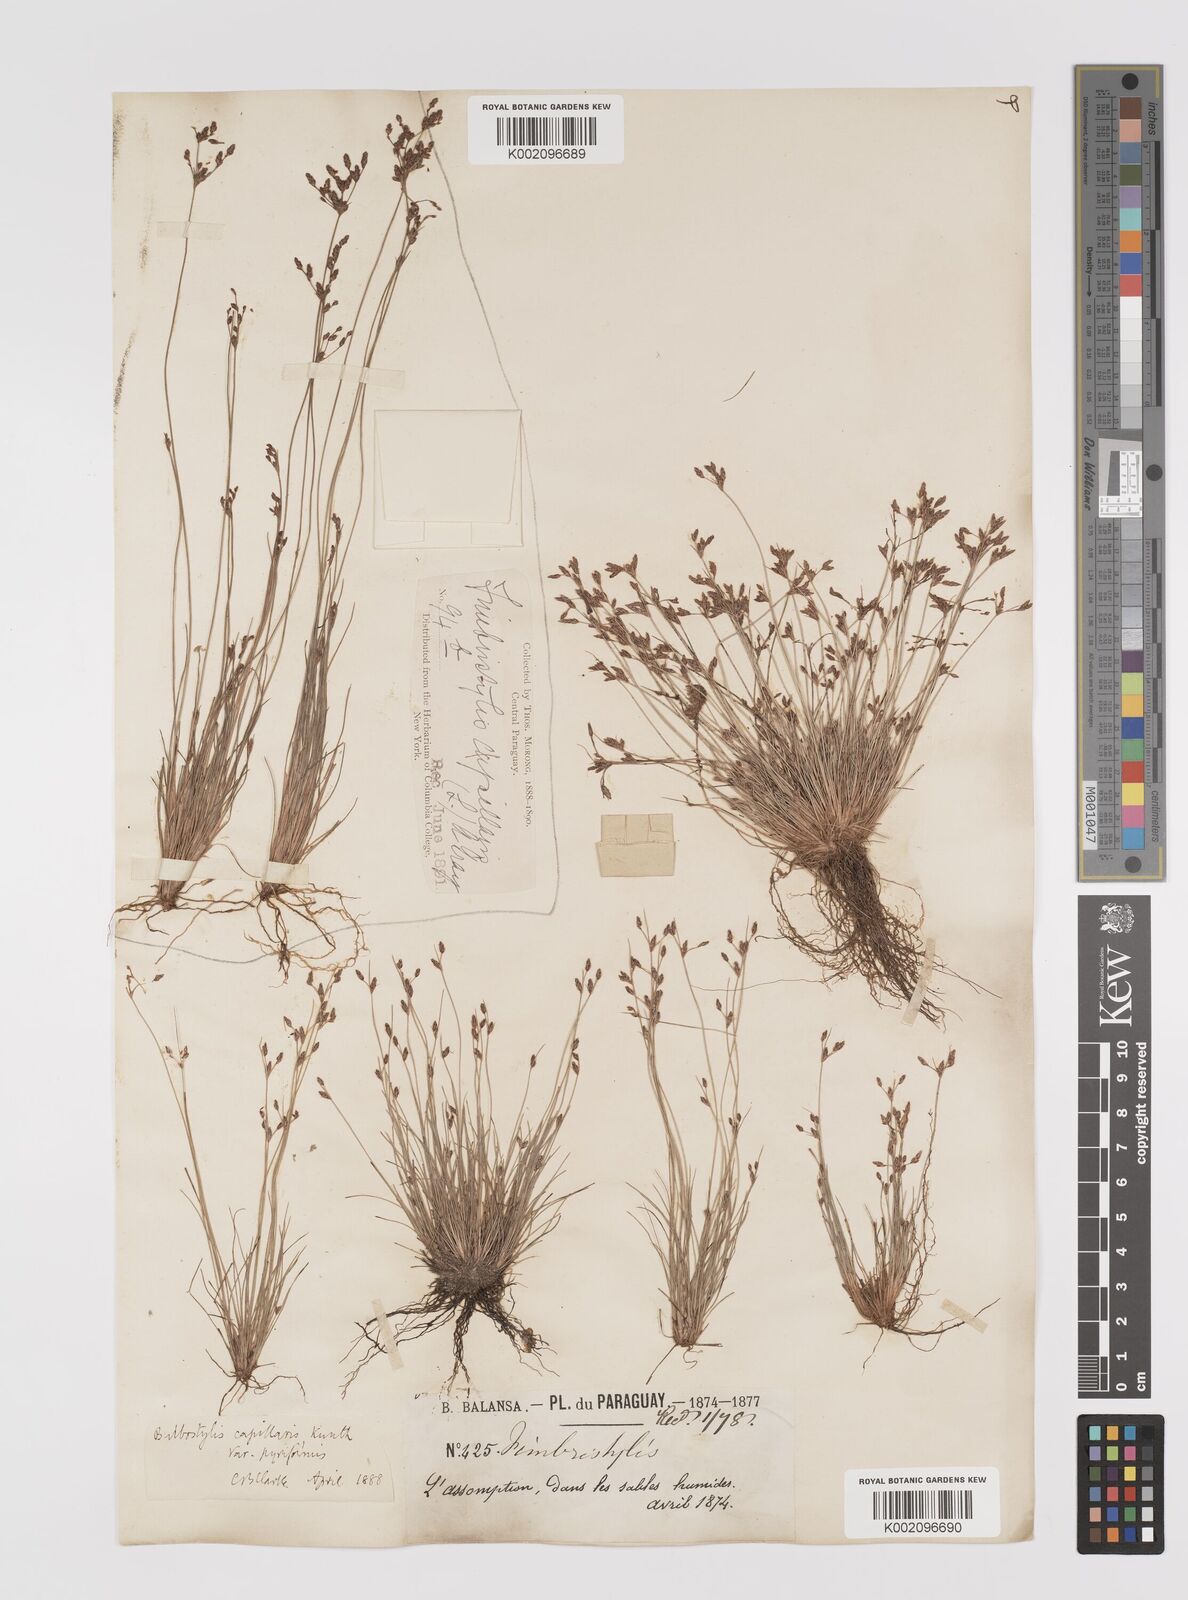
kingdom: Plantae
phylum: Tracheophyta
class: Liliopsida
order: Poales
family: Cyperaceae
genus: Bulbostylis
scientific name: Bulbostylis capillaris
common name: Densetuft hairsedge
